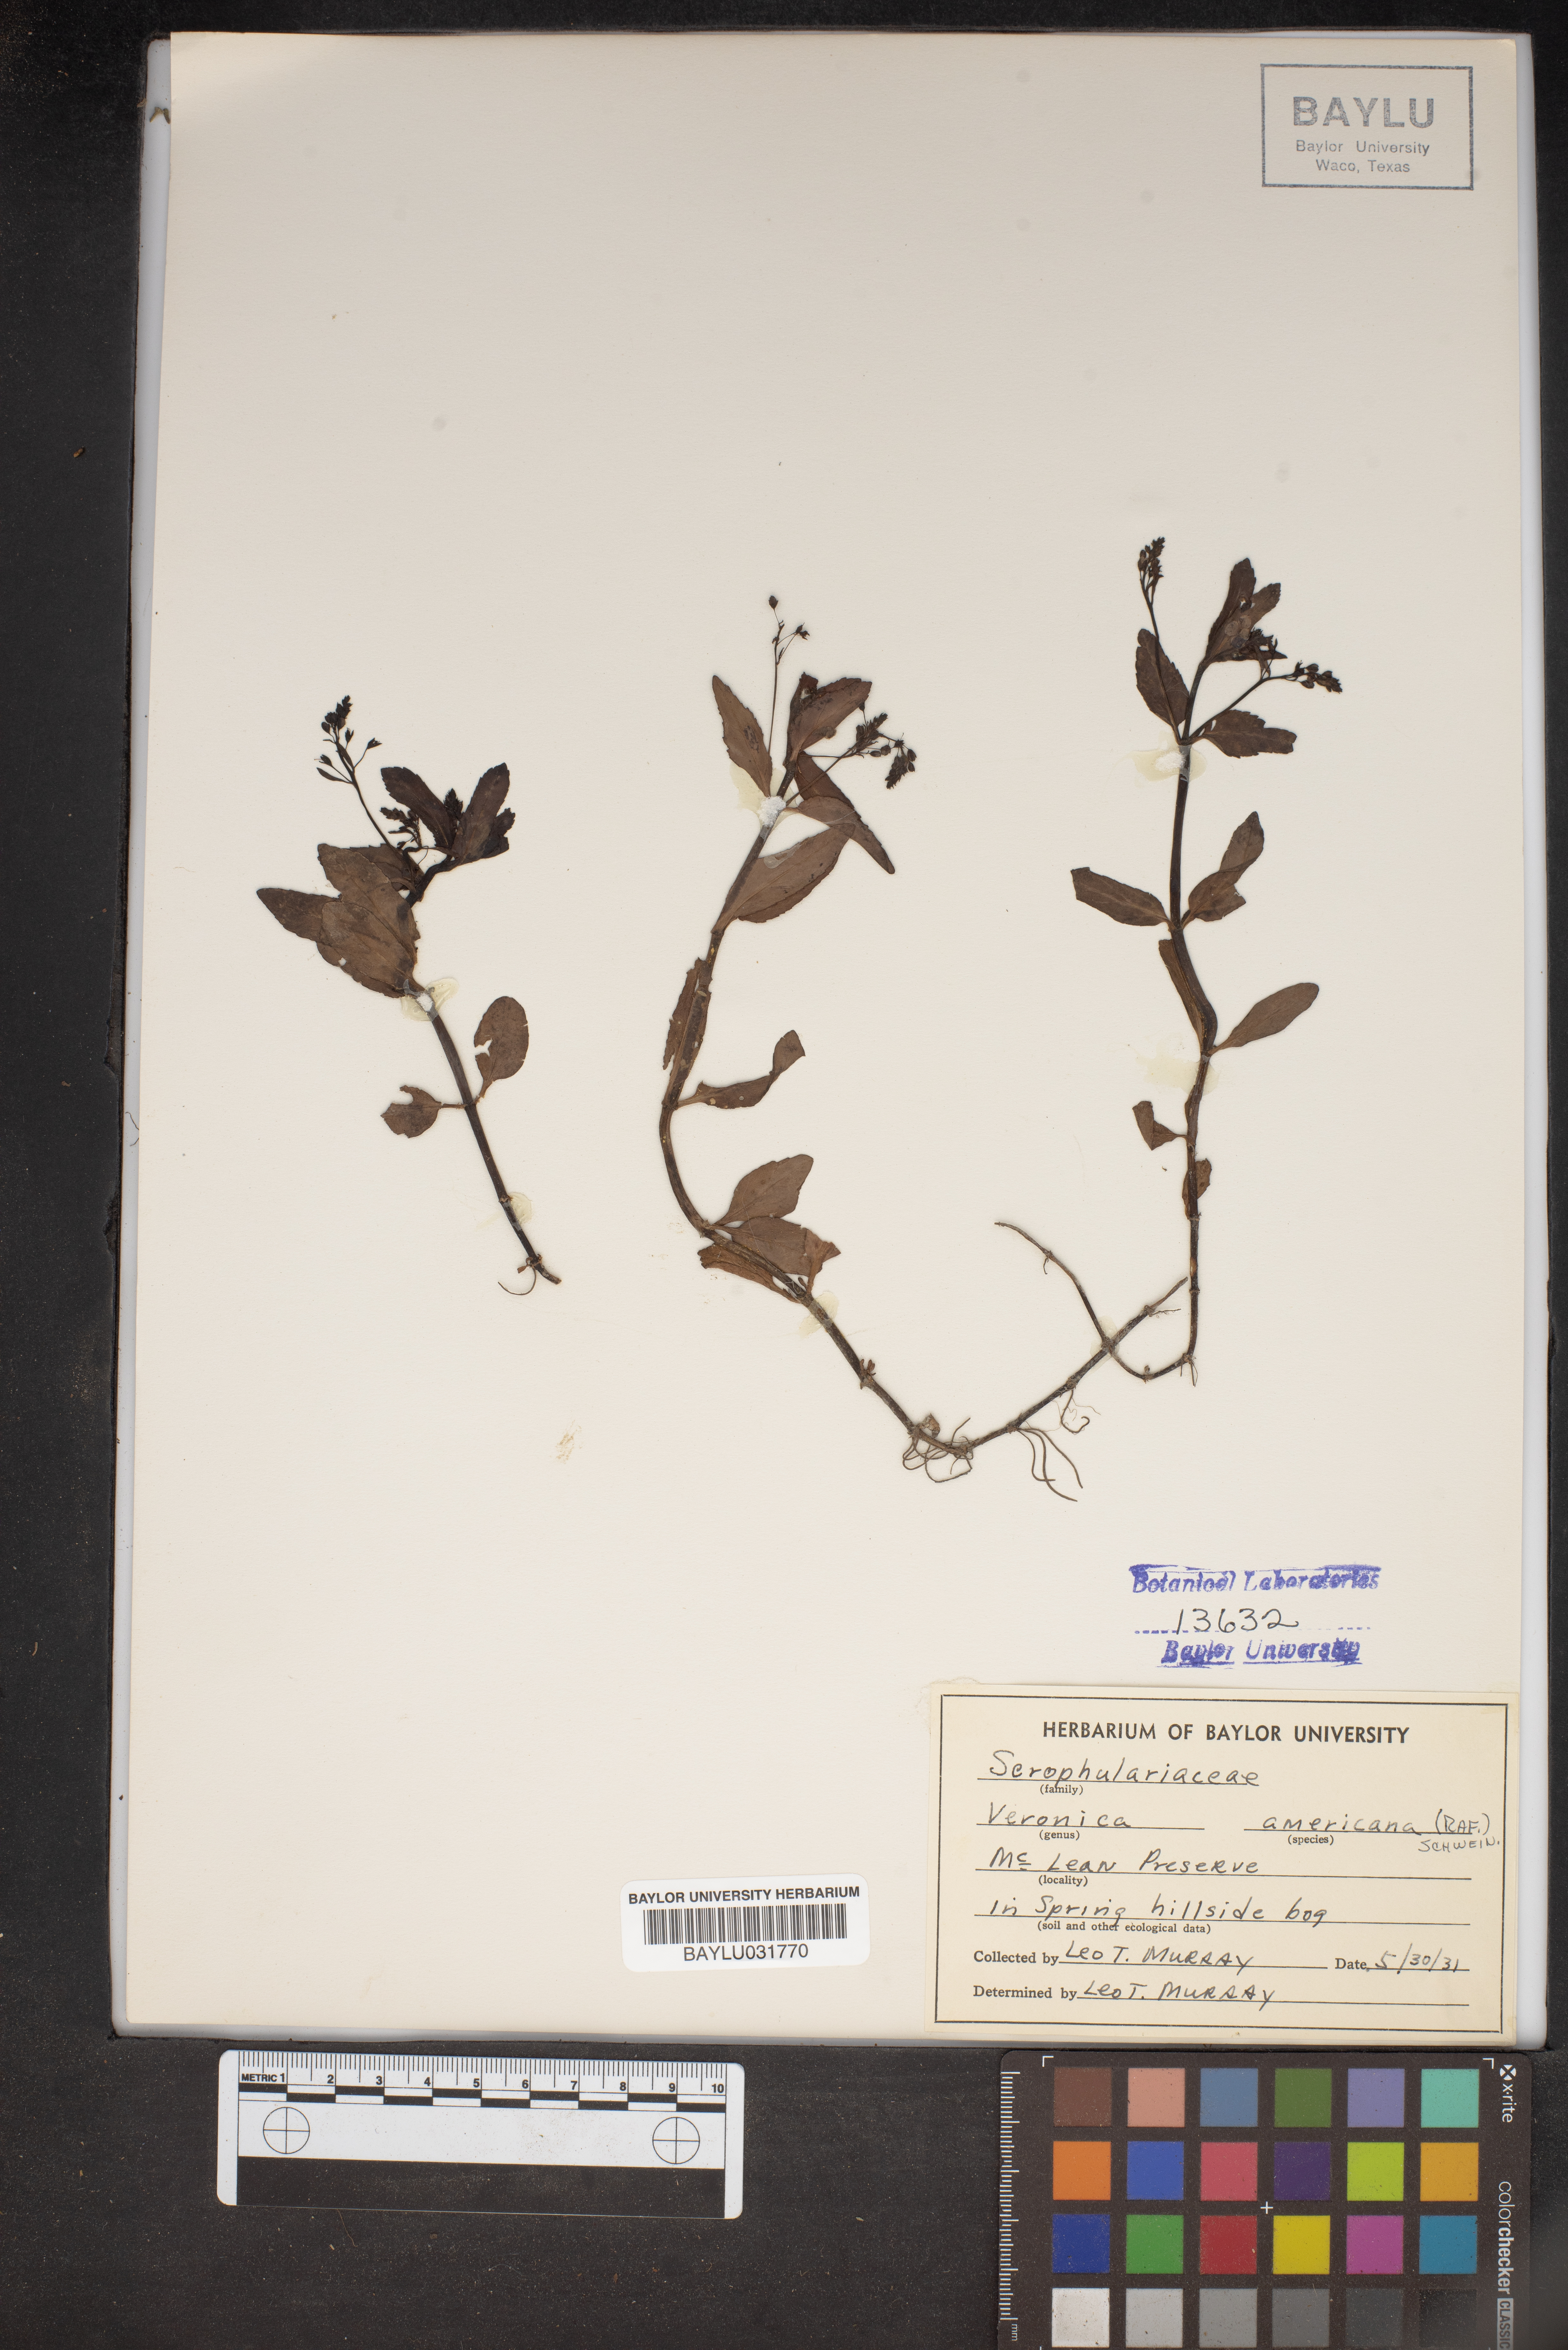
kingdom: Plantae
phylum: Tracheophyta
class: Magnoliopsida
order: Lamiales
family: Plantaginaceae
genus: Veronica
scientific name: Veronica americana
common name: American brooklime
